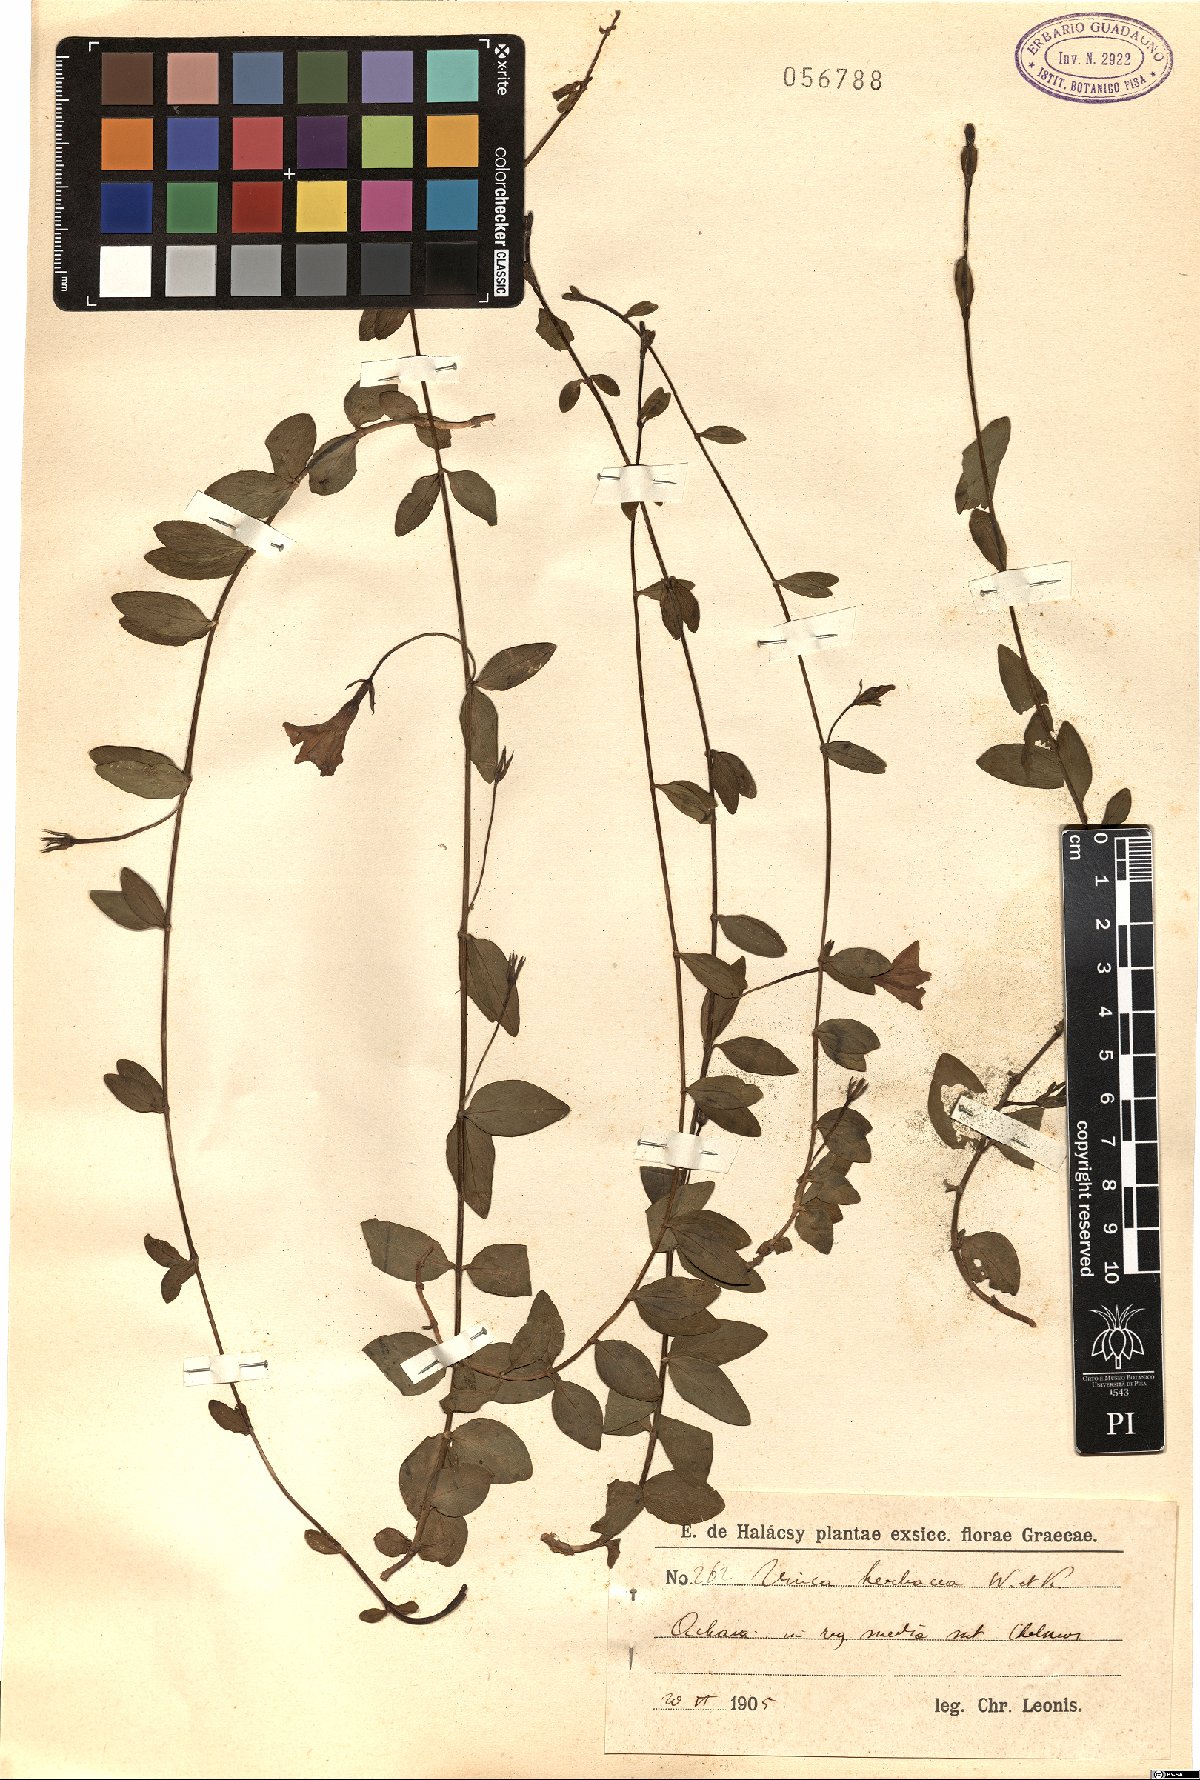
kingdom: Plantae
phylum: Tracheophyta
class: Magnoliopsida
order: Gentianales
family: Apocynaceae
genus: Vinca
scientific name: Vinca herbacea
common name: Herbaceous periwinkle
